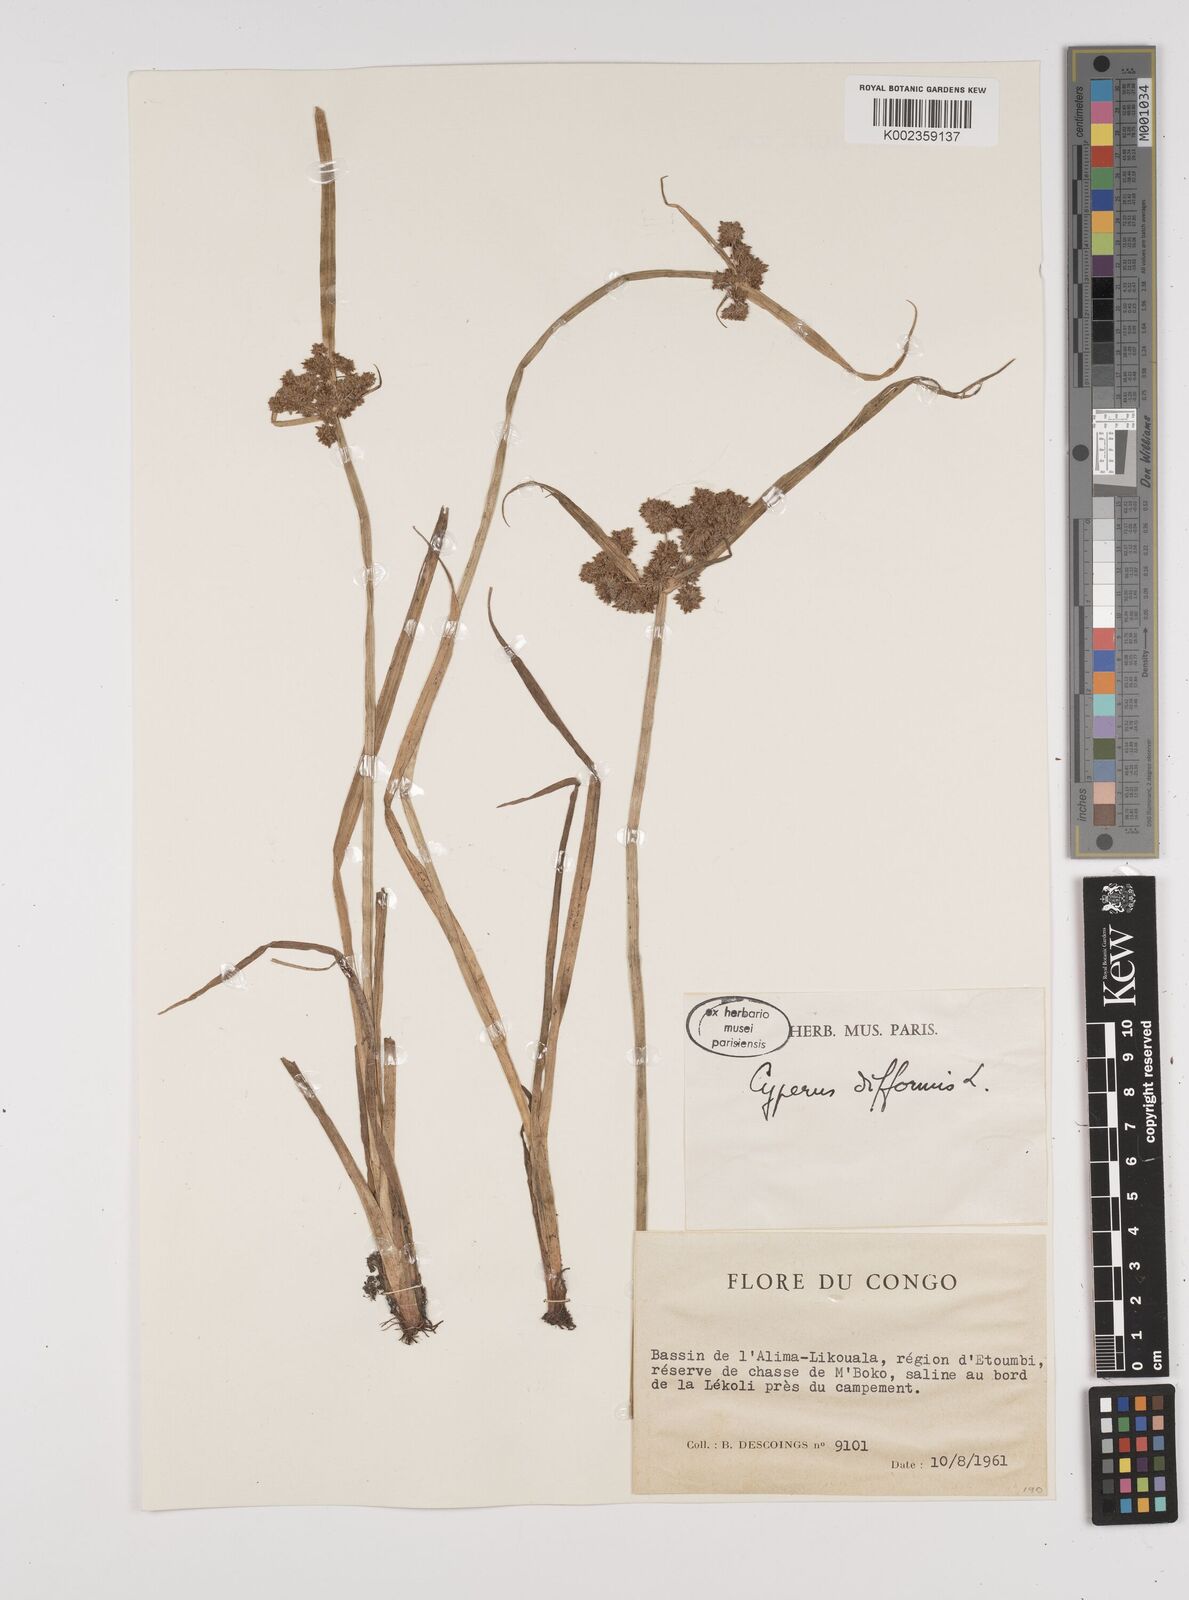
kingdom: Plantae
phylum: Tracheophyta
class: Liliopsida
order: Poales
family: Cyperaceae
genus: Cyperus
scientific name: Cyperus difformis
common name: Variable flatsedge
